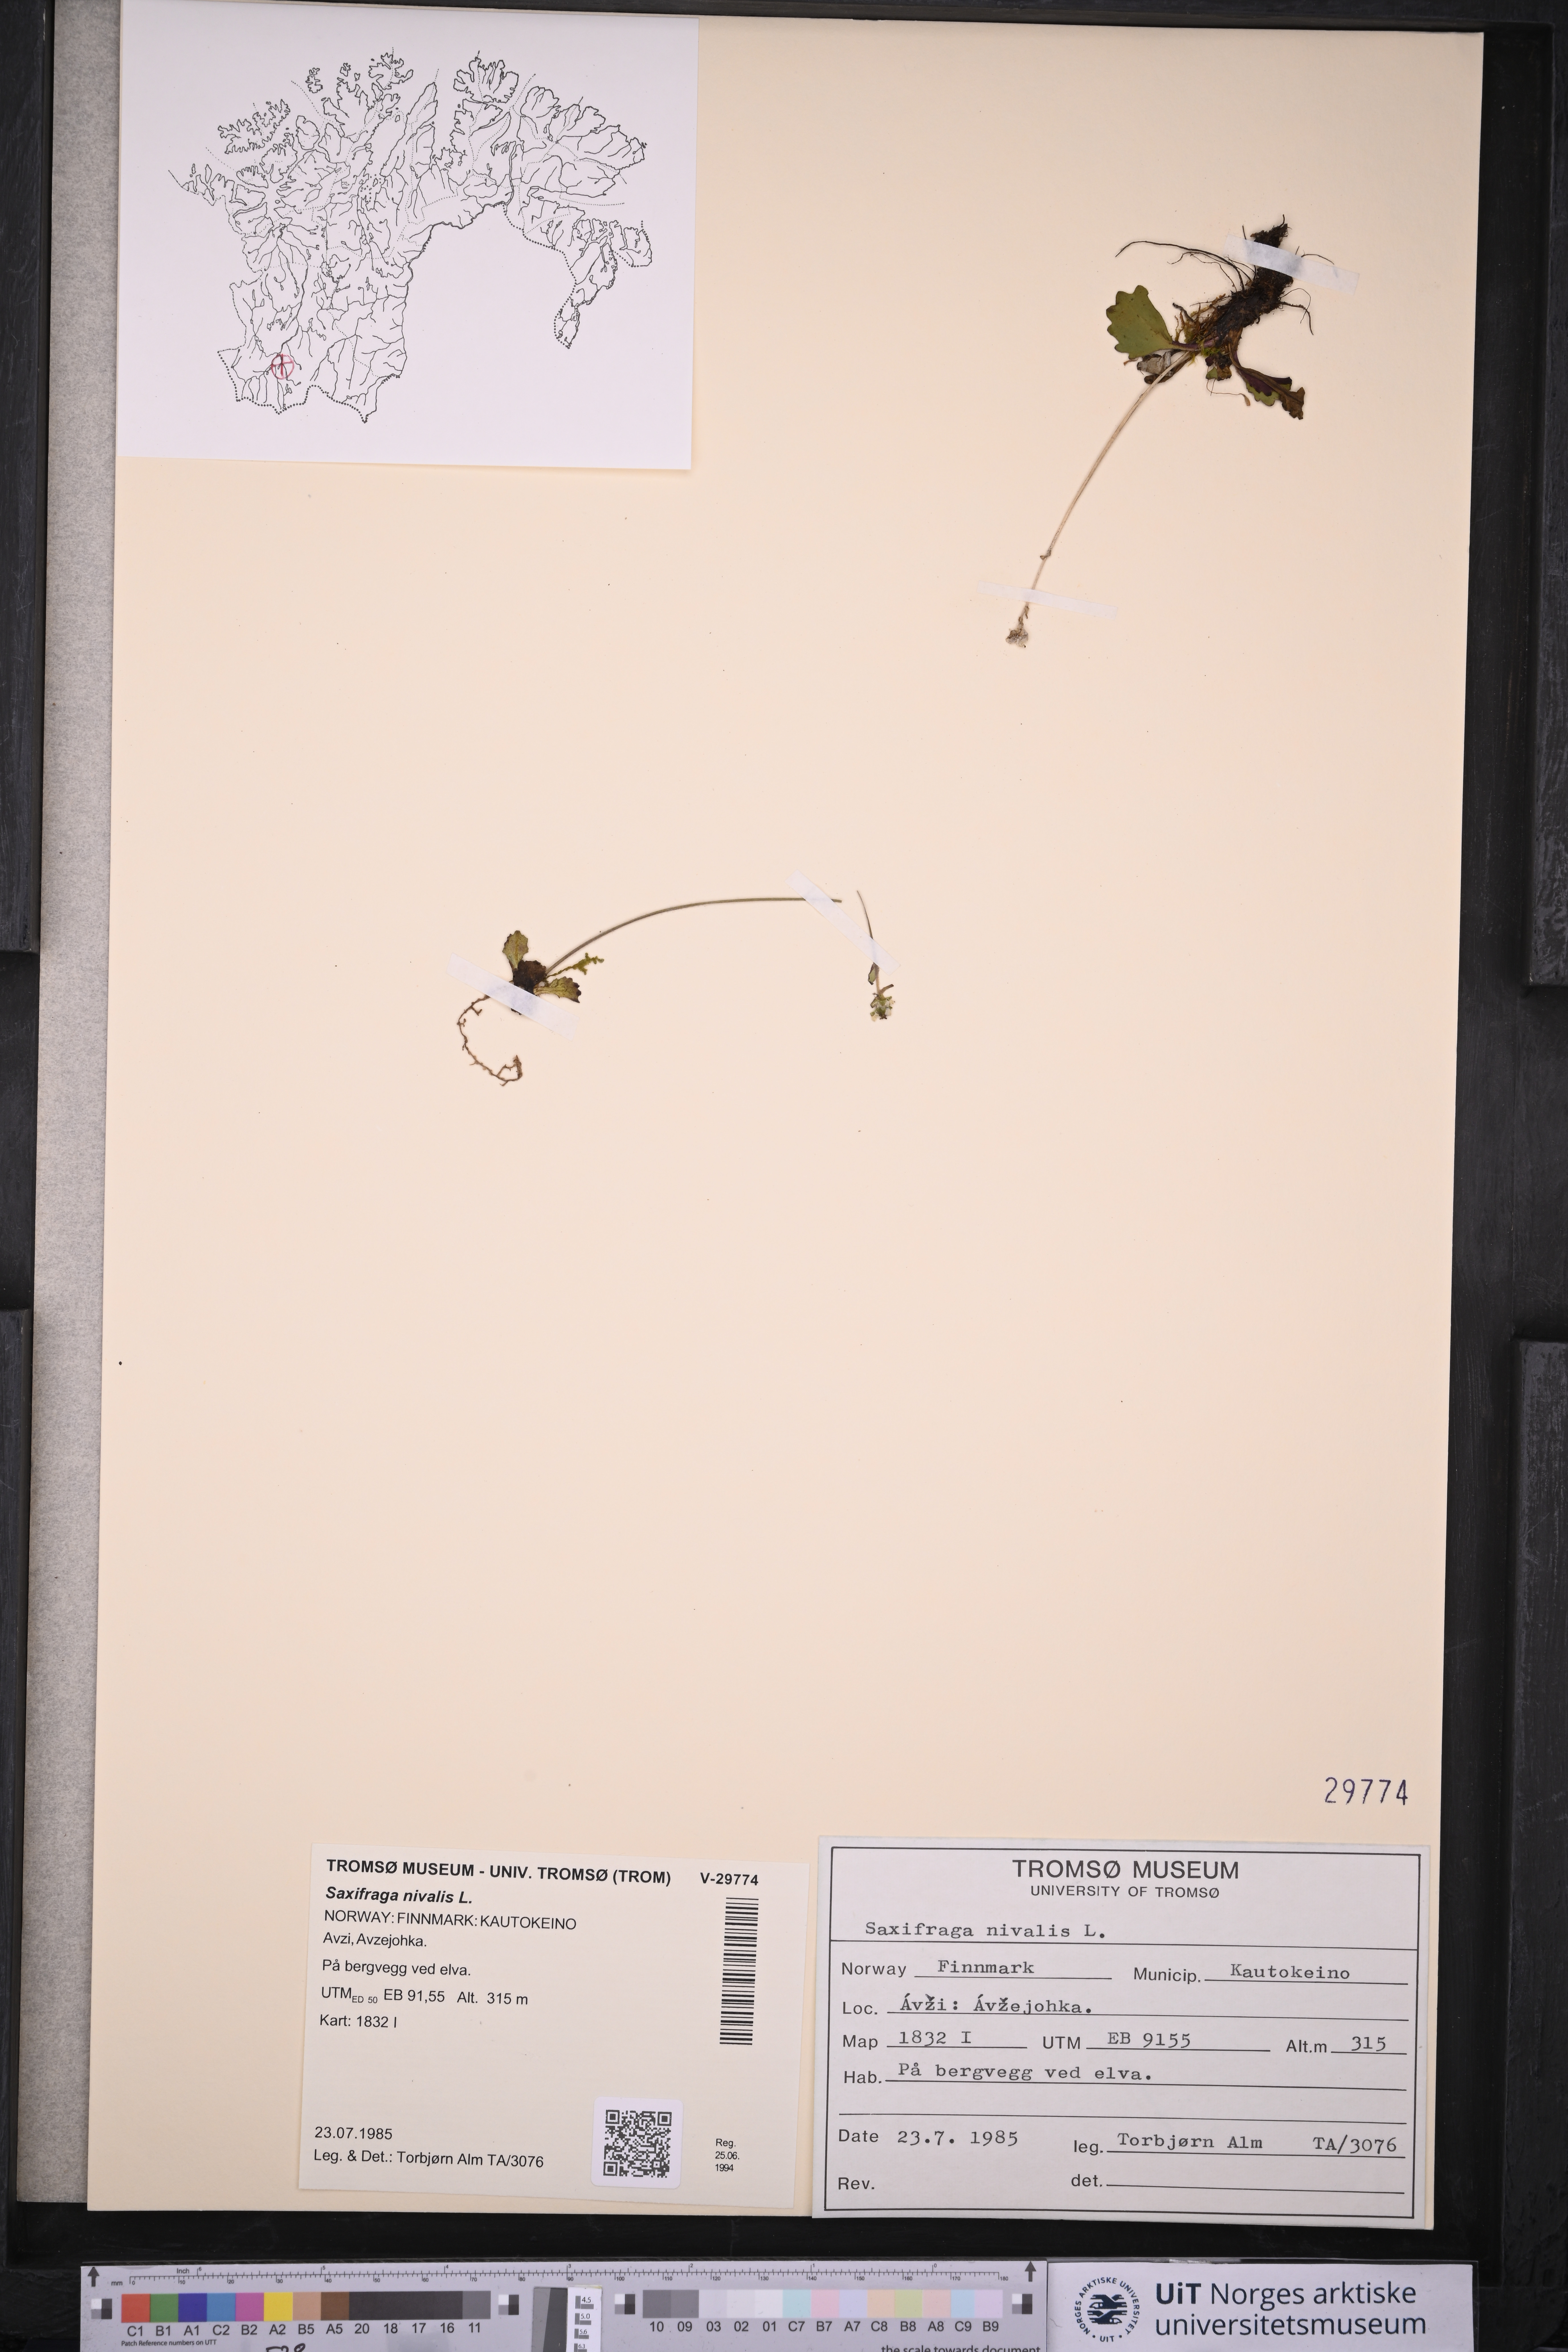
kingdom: Plantae
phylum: Tracheophyta
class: Magnoliopsida
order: Saxifragales
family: Saxifragaceae
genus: Micranthes
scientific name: Micranthes nivalis
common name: Alpine saxifrage
